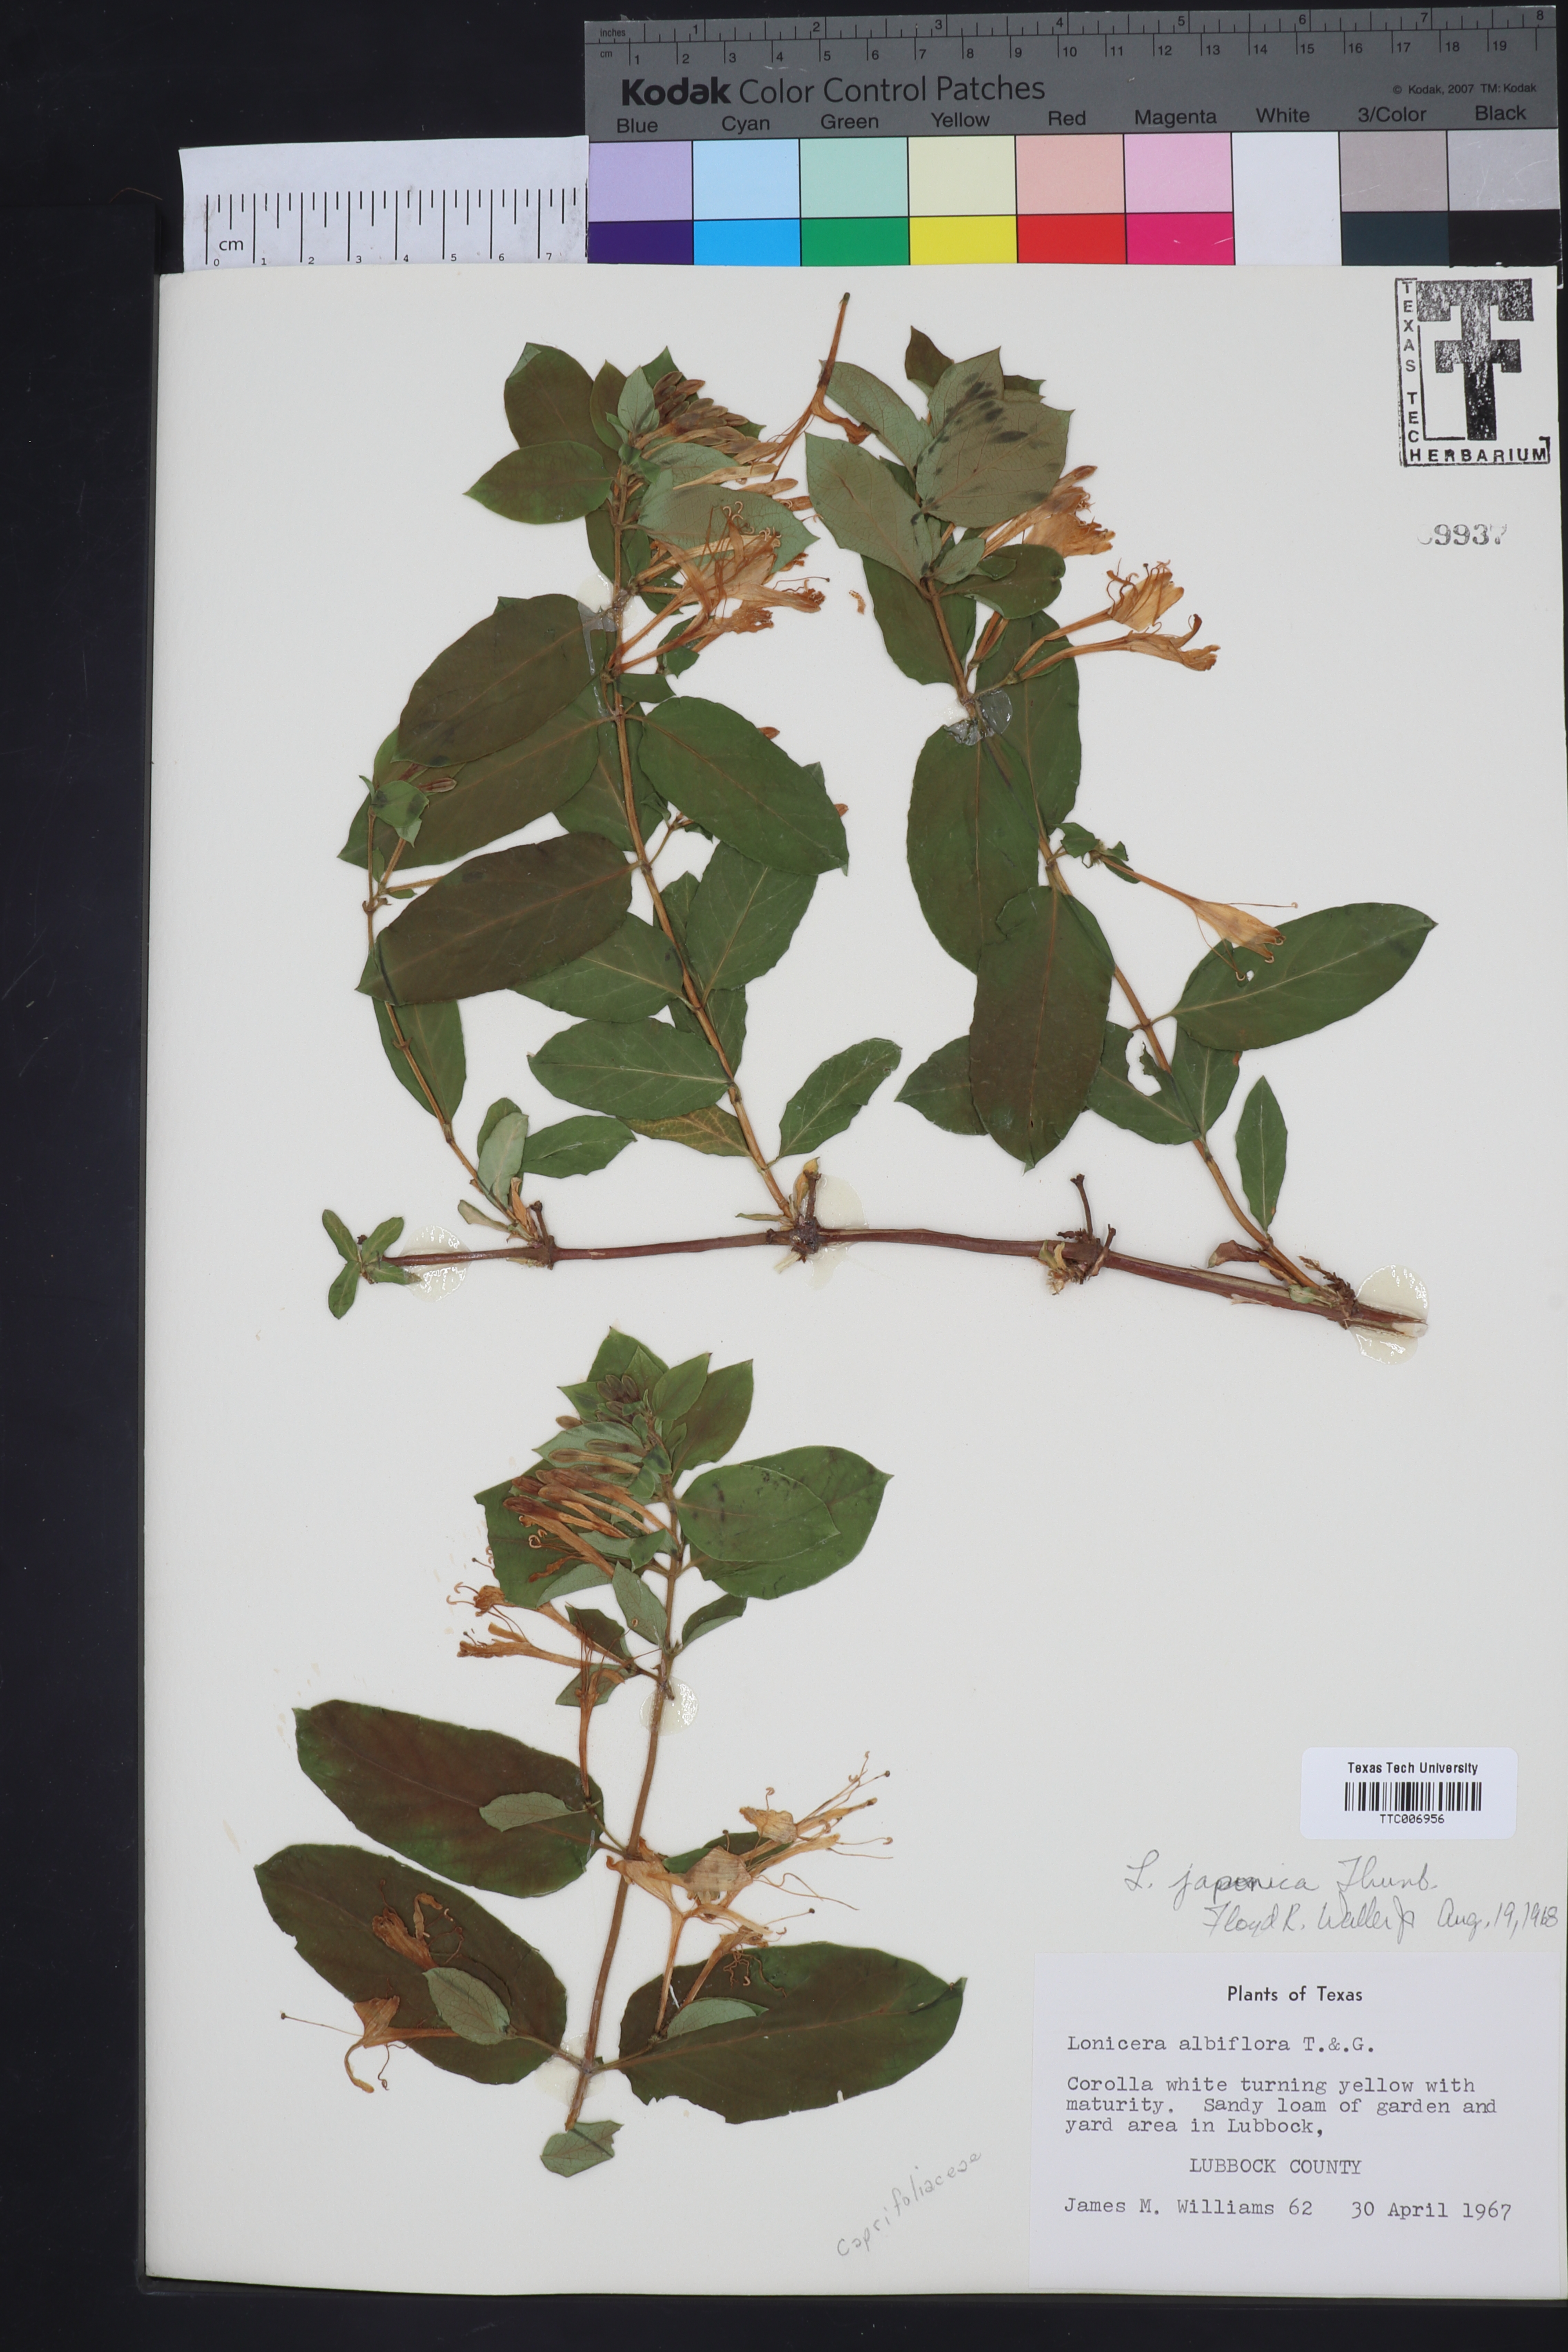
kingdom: Plantae
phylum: Tracheophyta
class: Magnoliopsida
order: Dipsacales
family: Caprifoliaceae
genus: Lonicera
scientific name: Lonicera japonica
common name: Japanese honeysuckle
